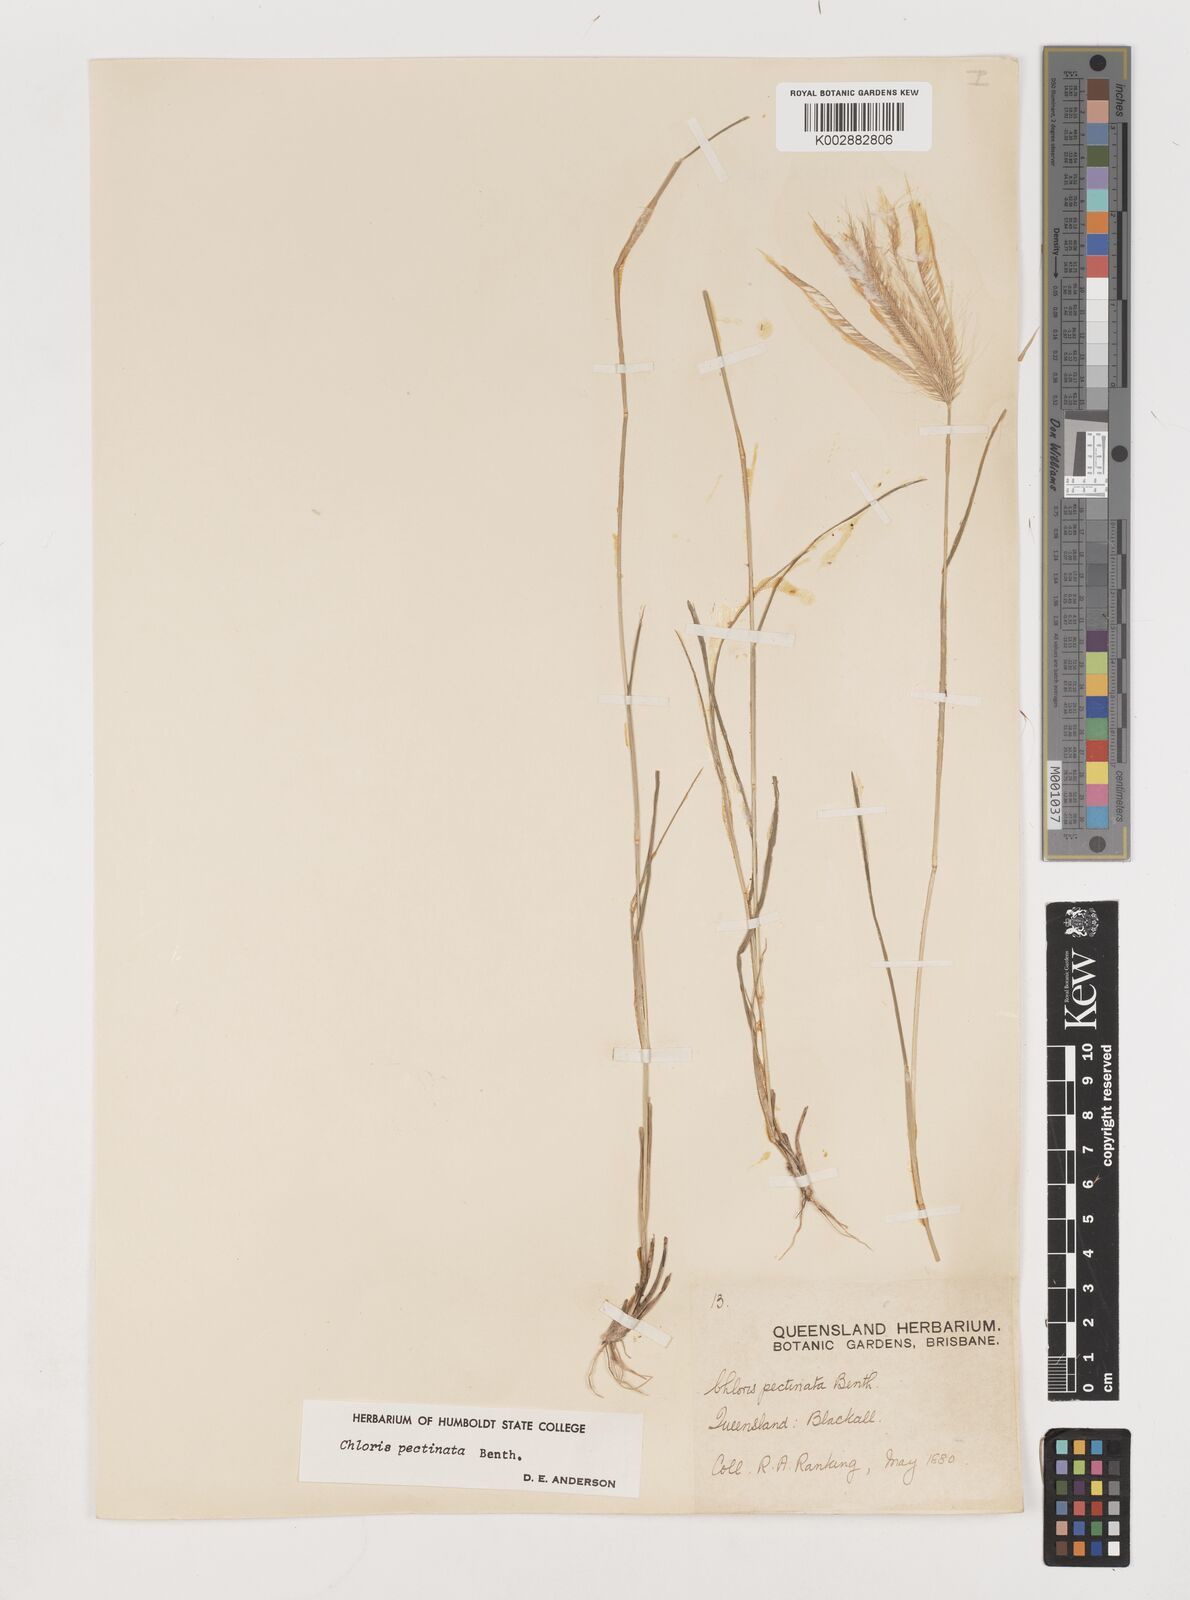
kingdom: Plantae
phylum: Tracheophyta
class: Liliopsida
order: Poales
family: Poaceae
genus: Chloris
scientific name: Chloris pectinata
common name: Comb windmill grass
